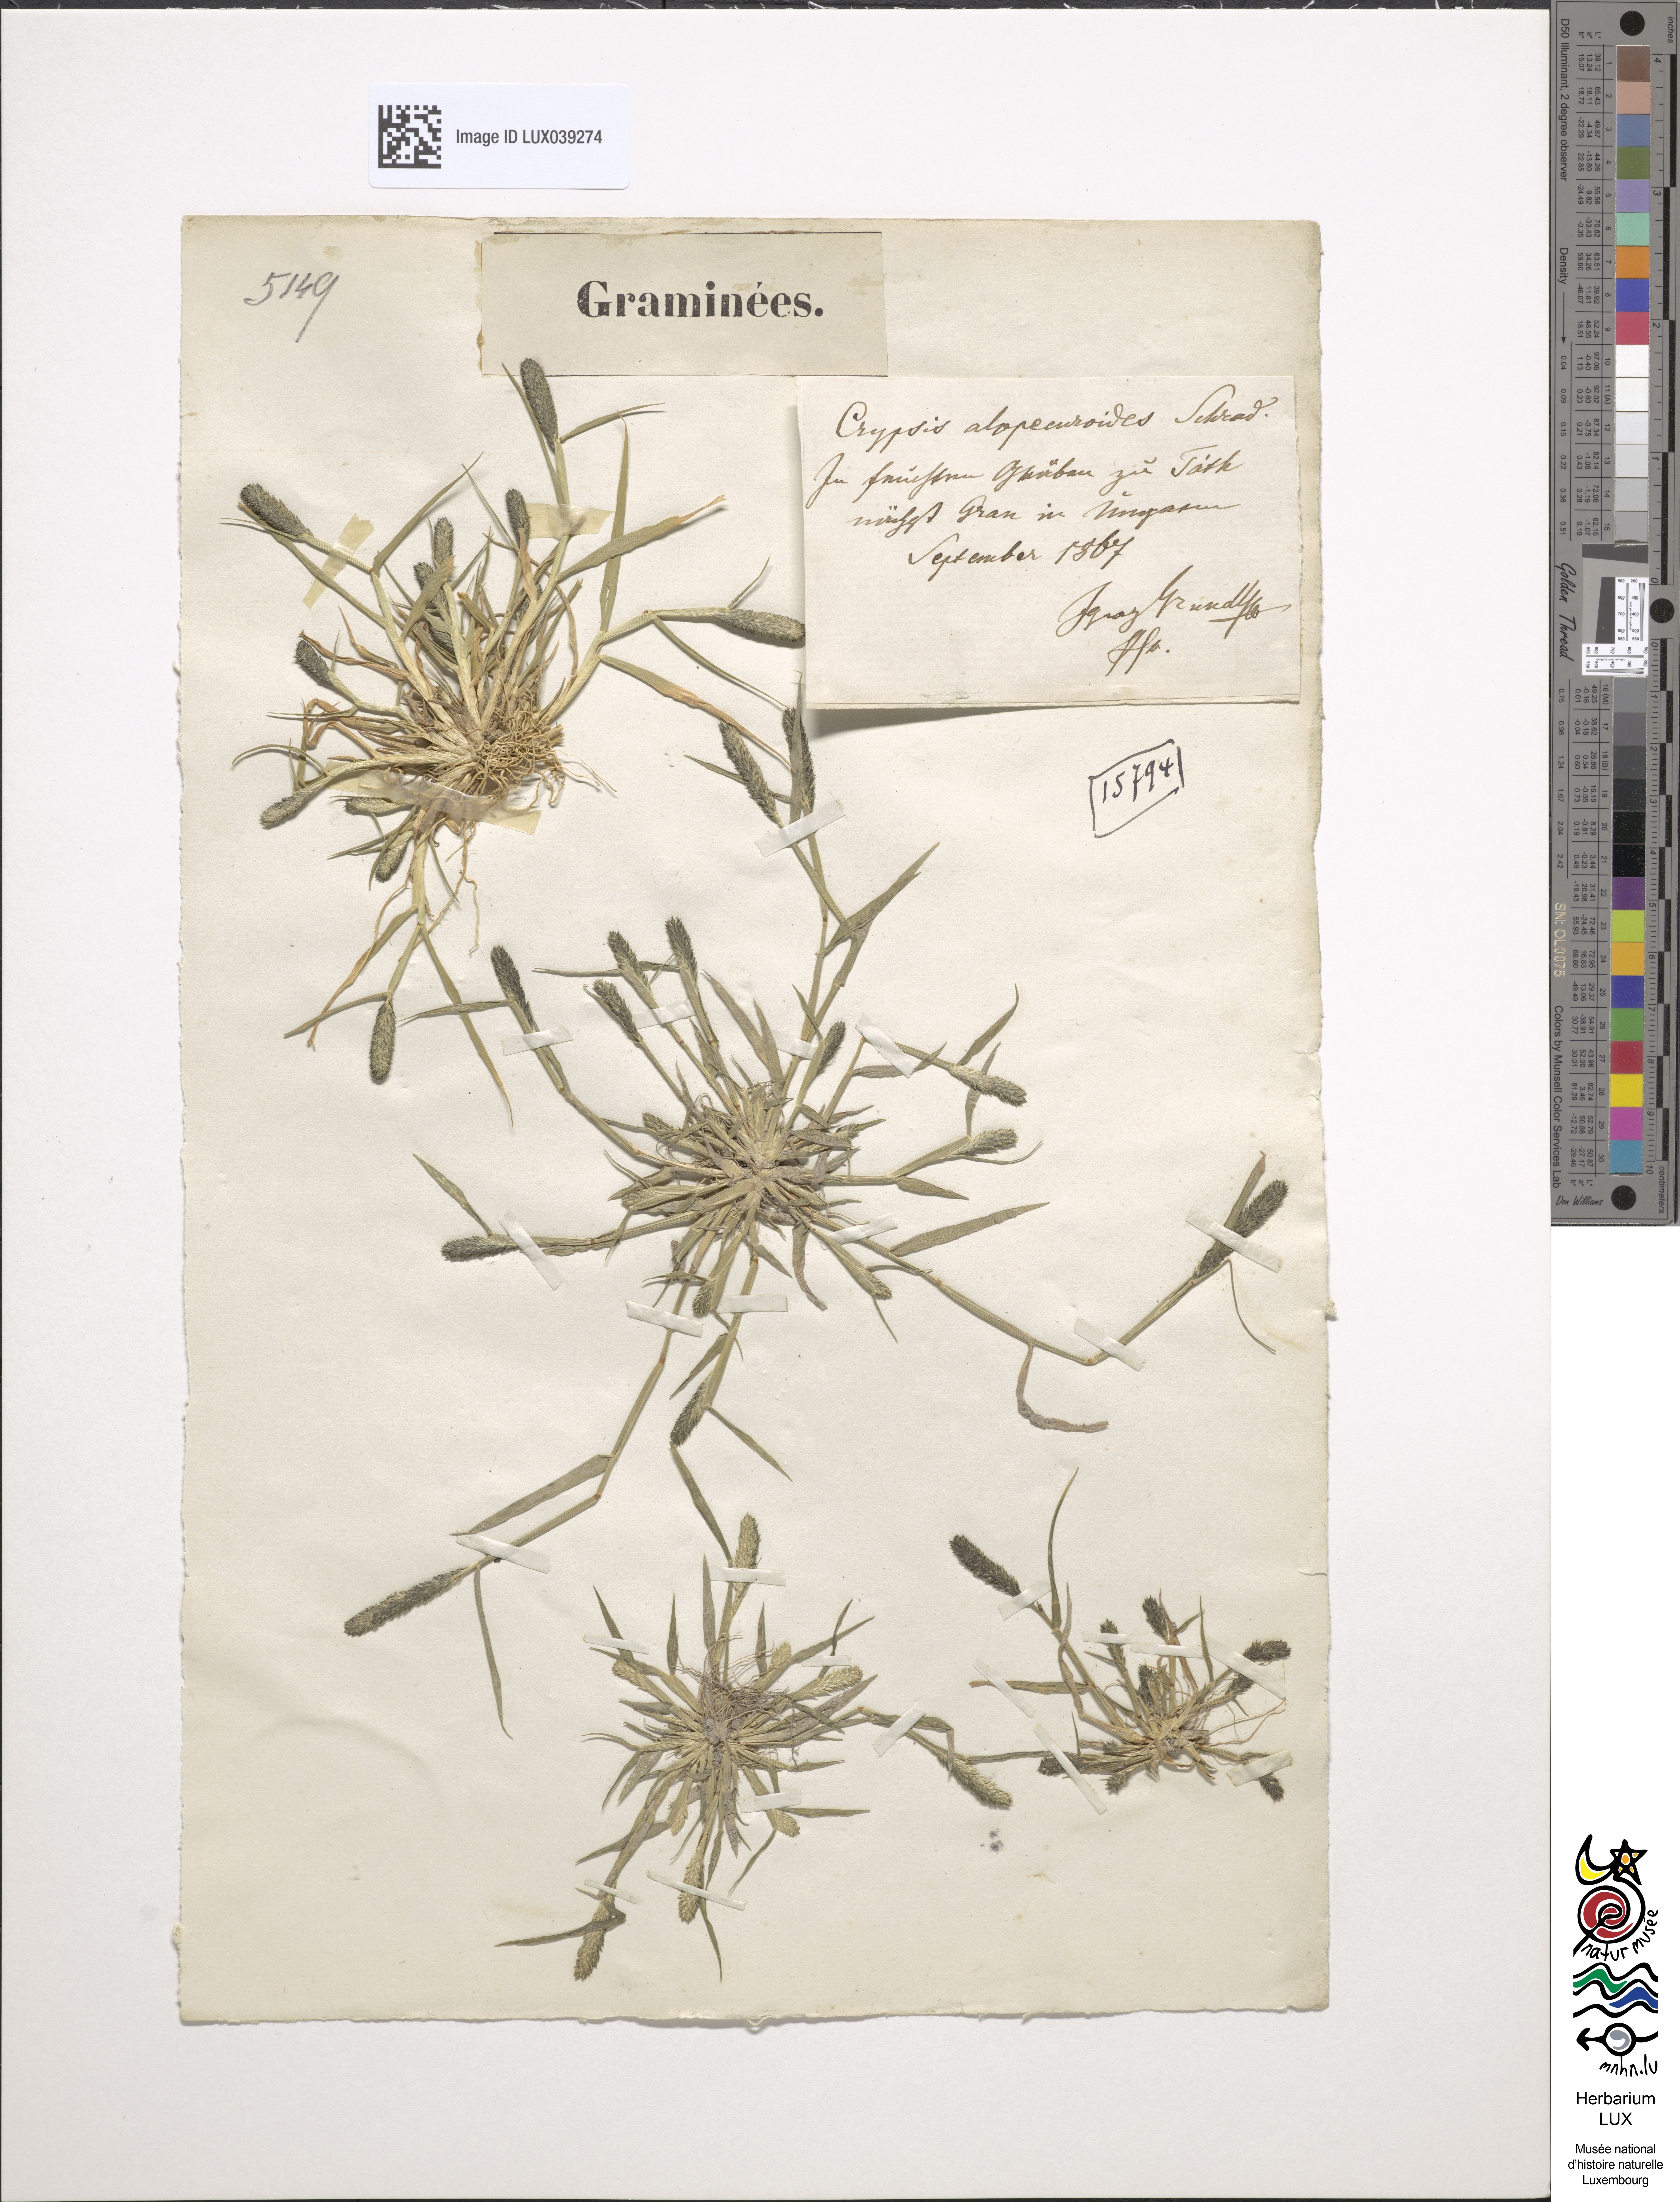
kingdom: Plantae
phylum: Tracheophyta
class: Liliopsida
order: Poales
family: Poaceae
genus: Sporobolus
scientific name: Sporobolus alopecuroides
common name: Foxtail pricklegrass
